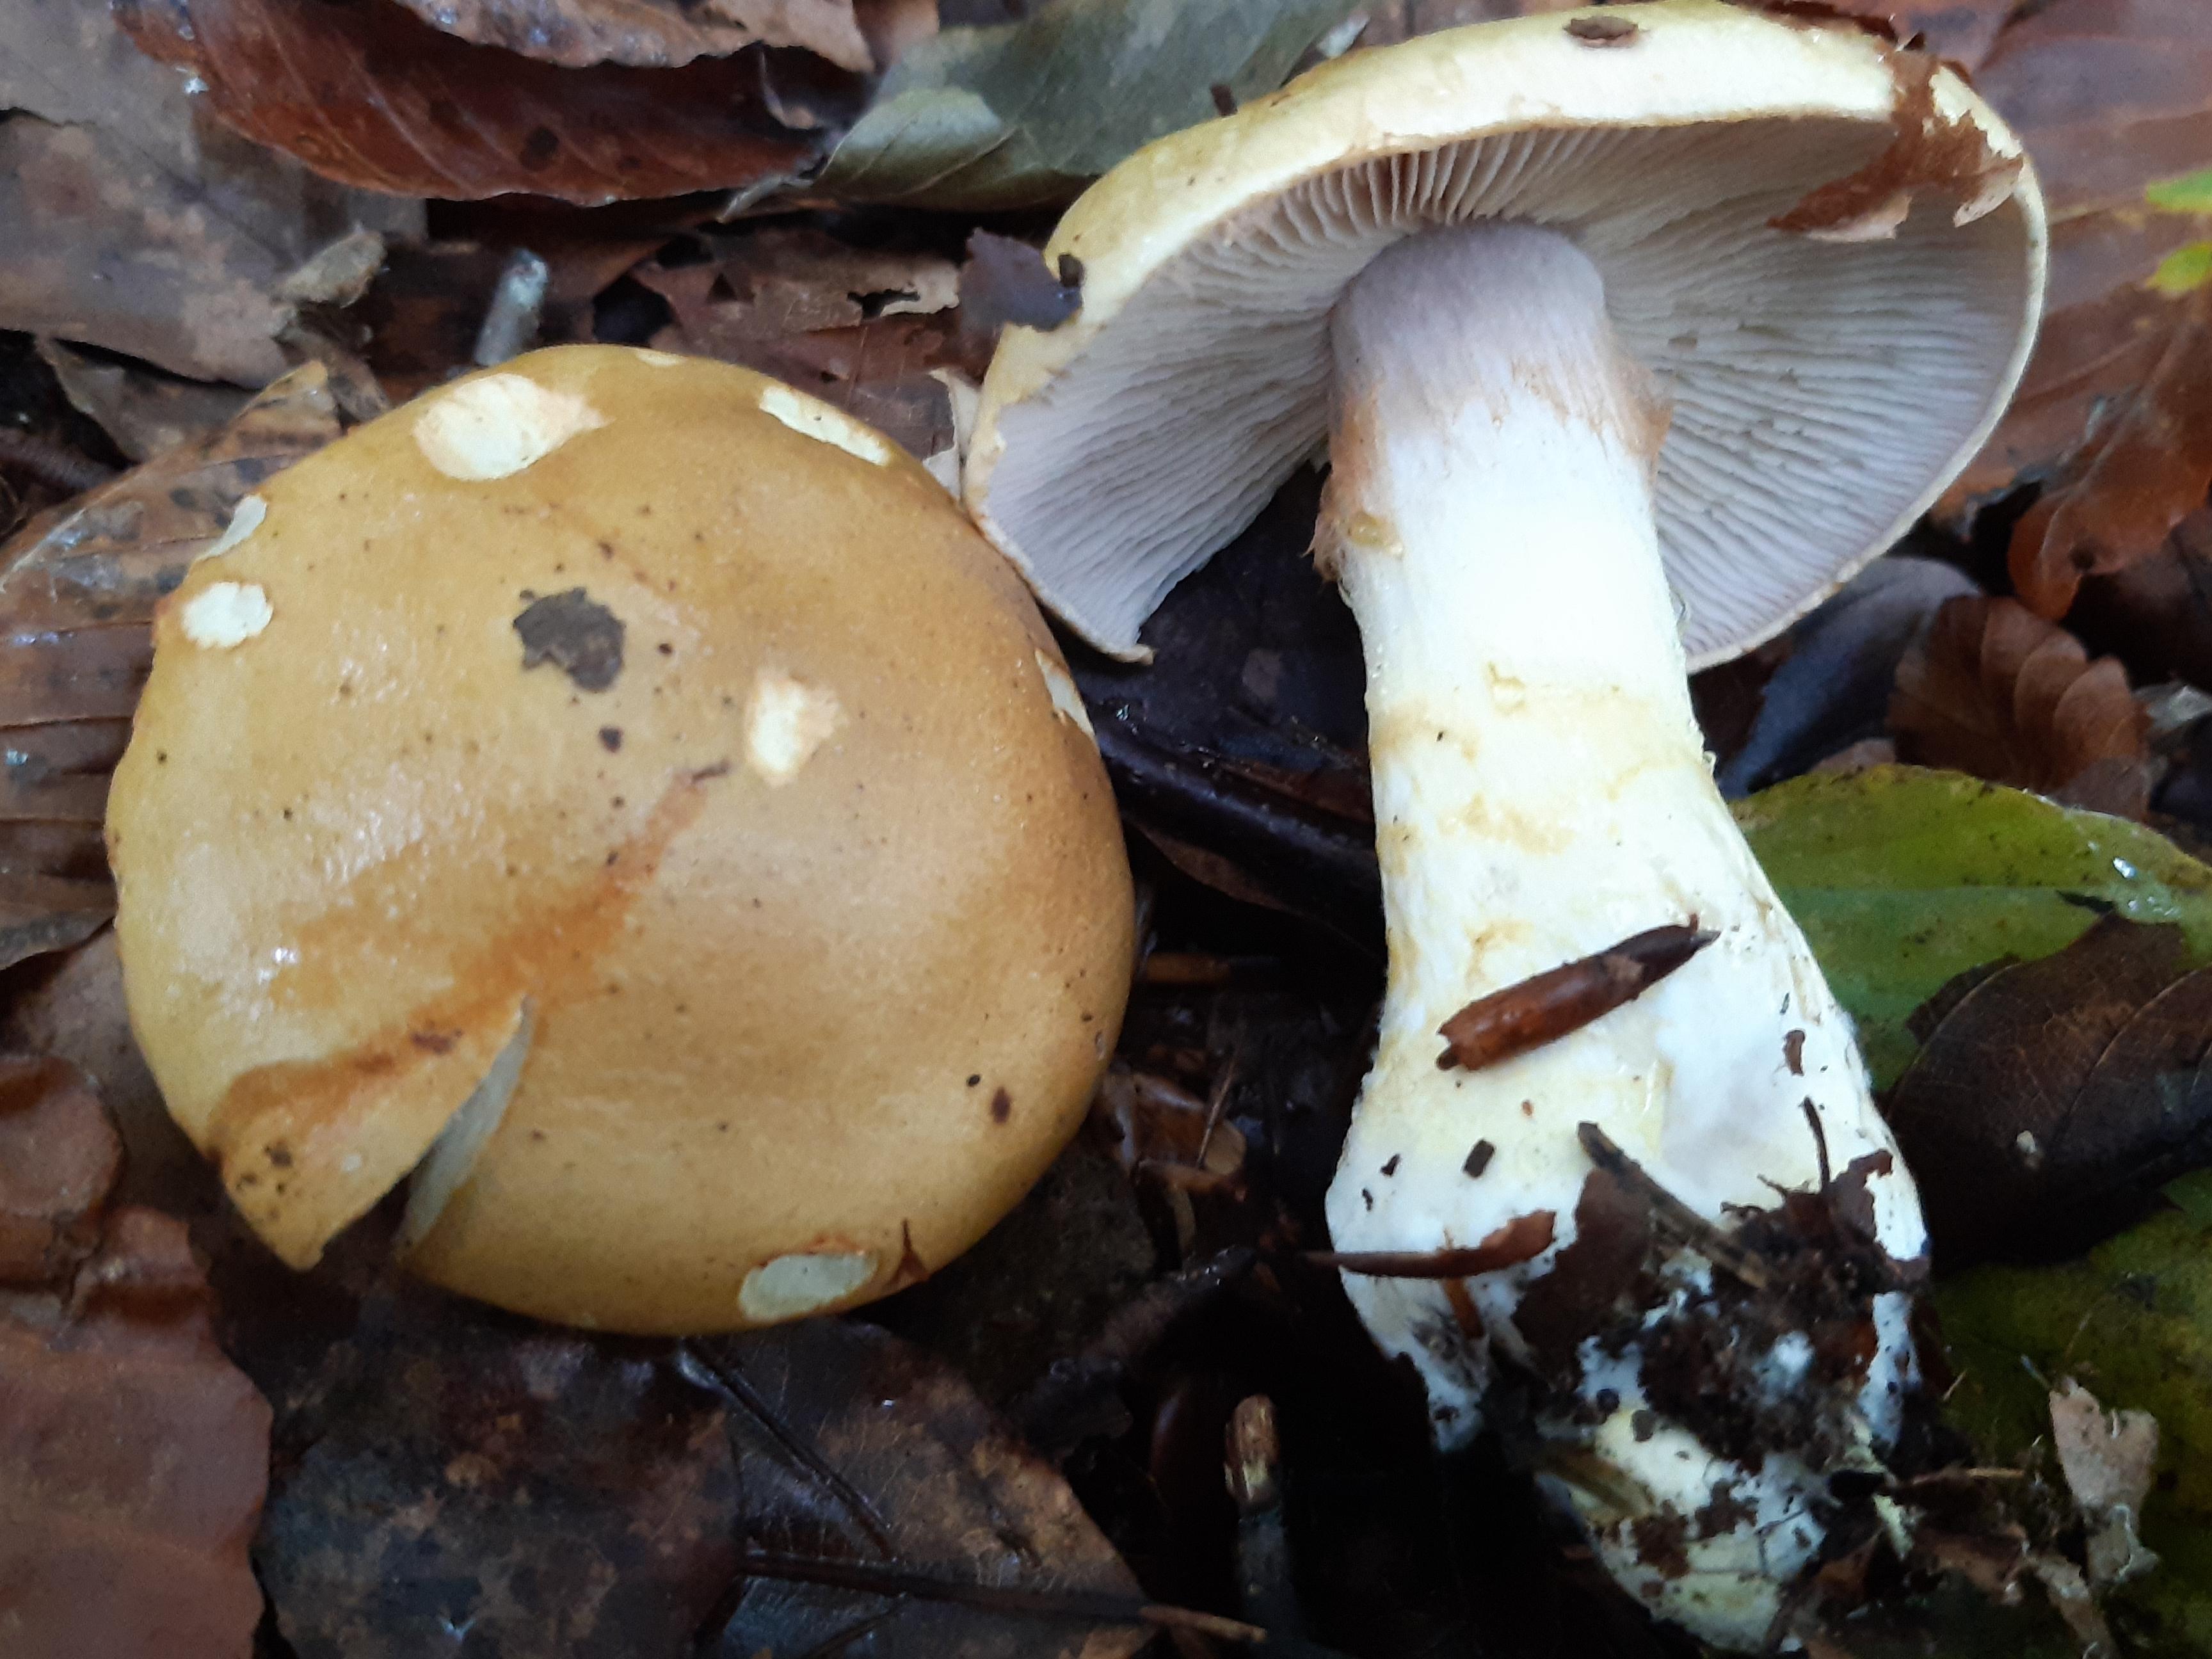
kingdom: Fungi
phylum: Basidiomycota
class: Agaricomycetes
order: Agaricales
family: Cortinariaceae
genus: Phlegmacium
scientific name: Phlegmacium cliduchus
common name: majs-slørhat
